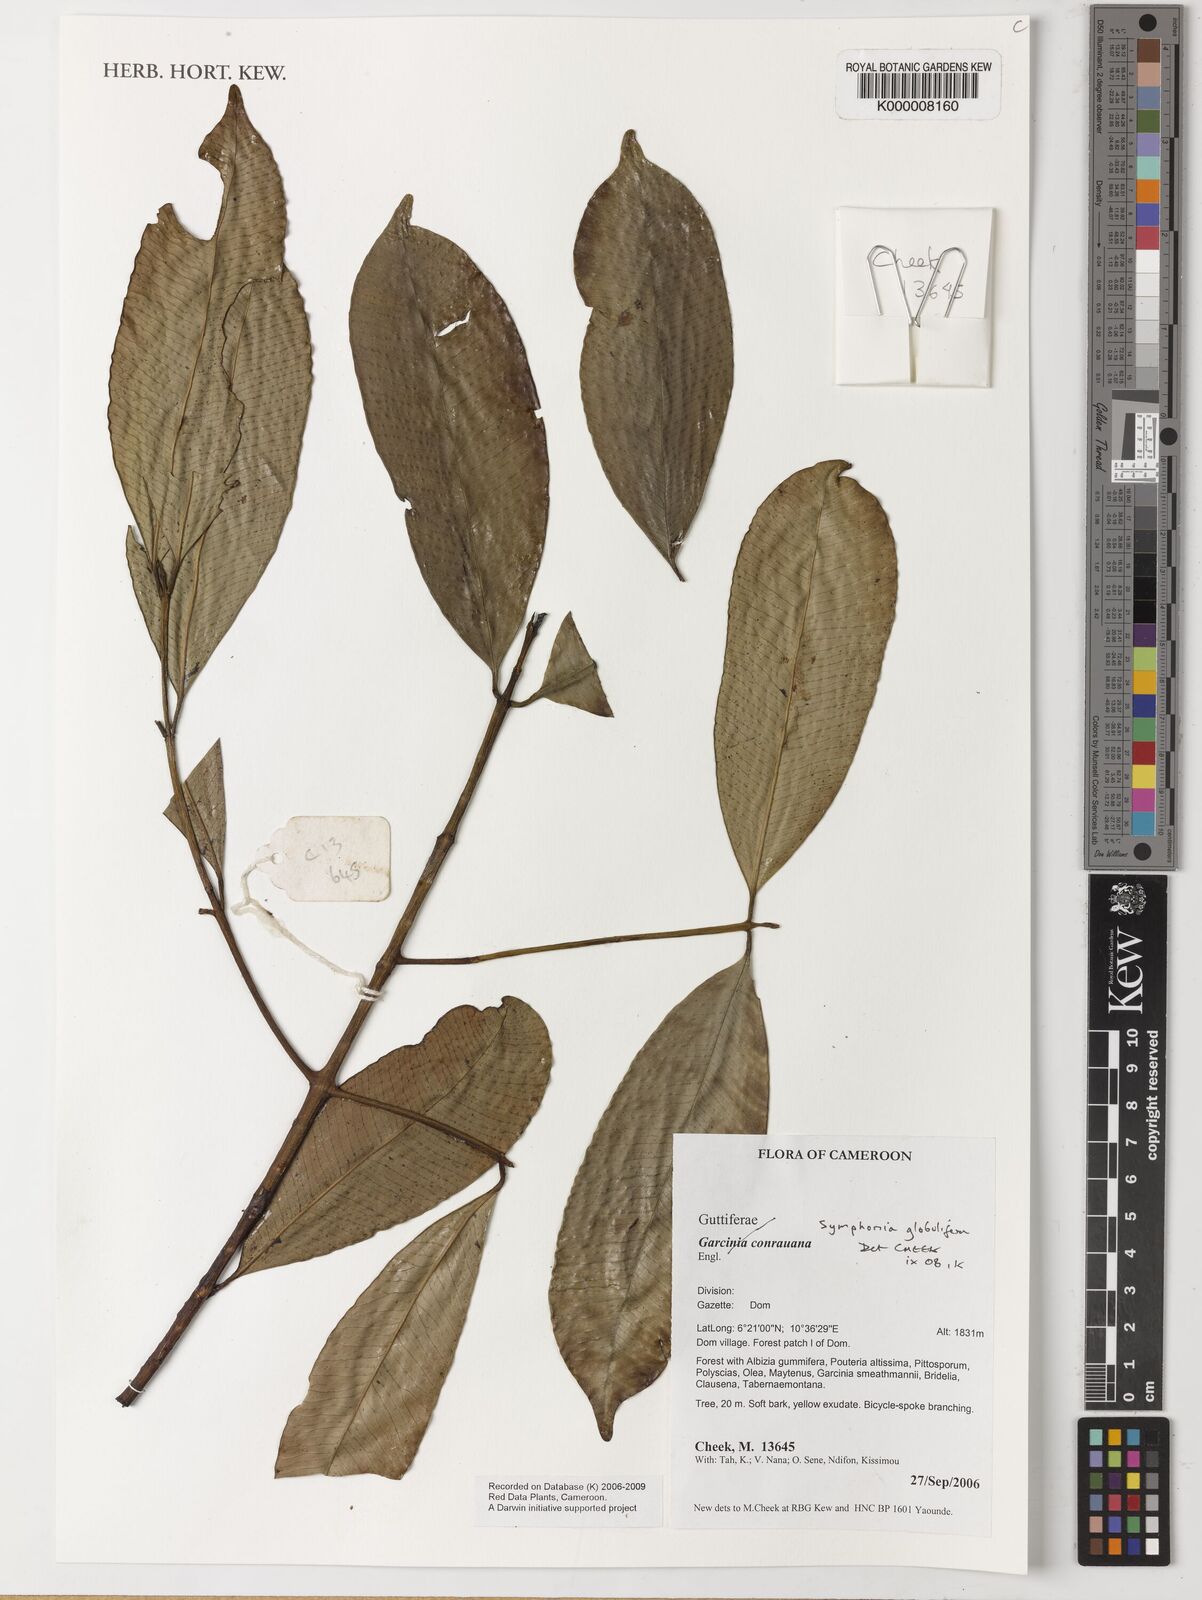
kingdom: Plantae
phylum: Tracheophyta
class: Magnoliopsida
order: Malpighiales
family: Clusiaceae
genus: Symphonia
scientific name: Symphonia globulifera
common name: Boarwood
